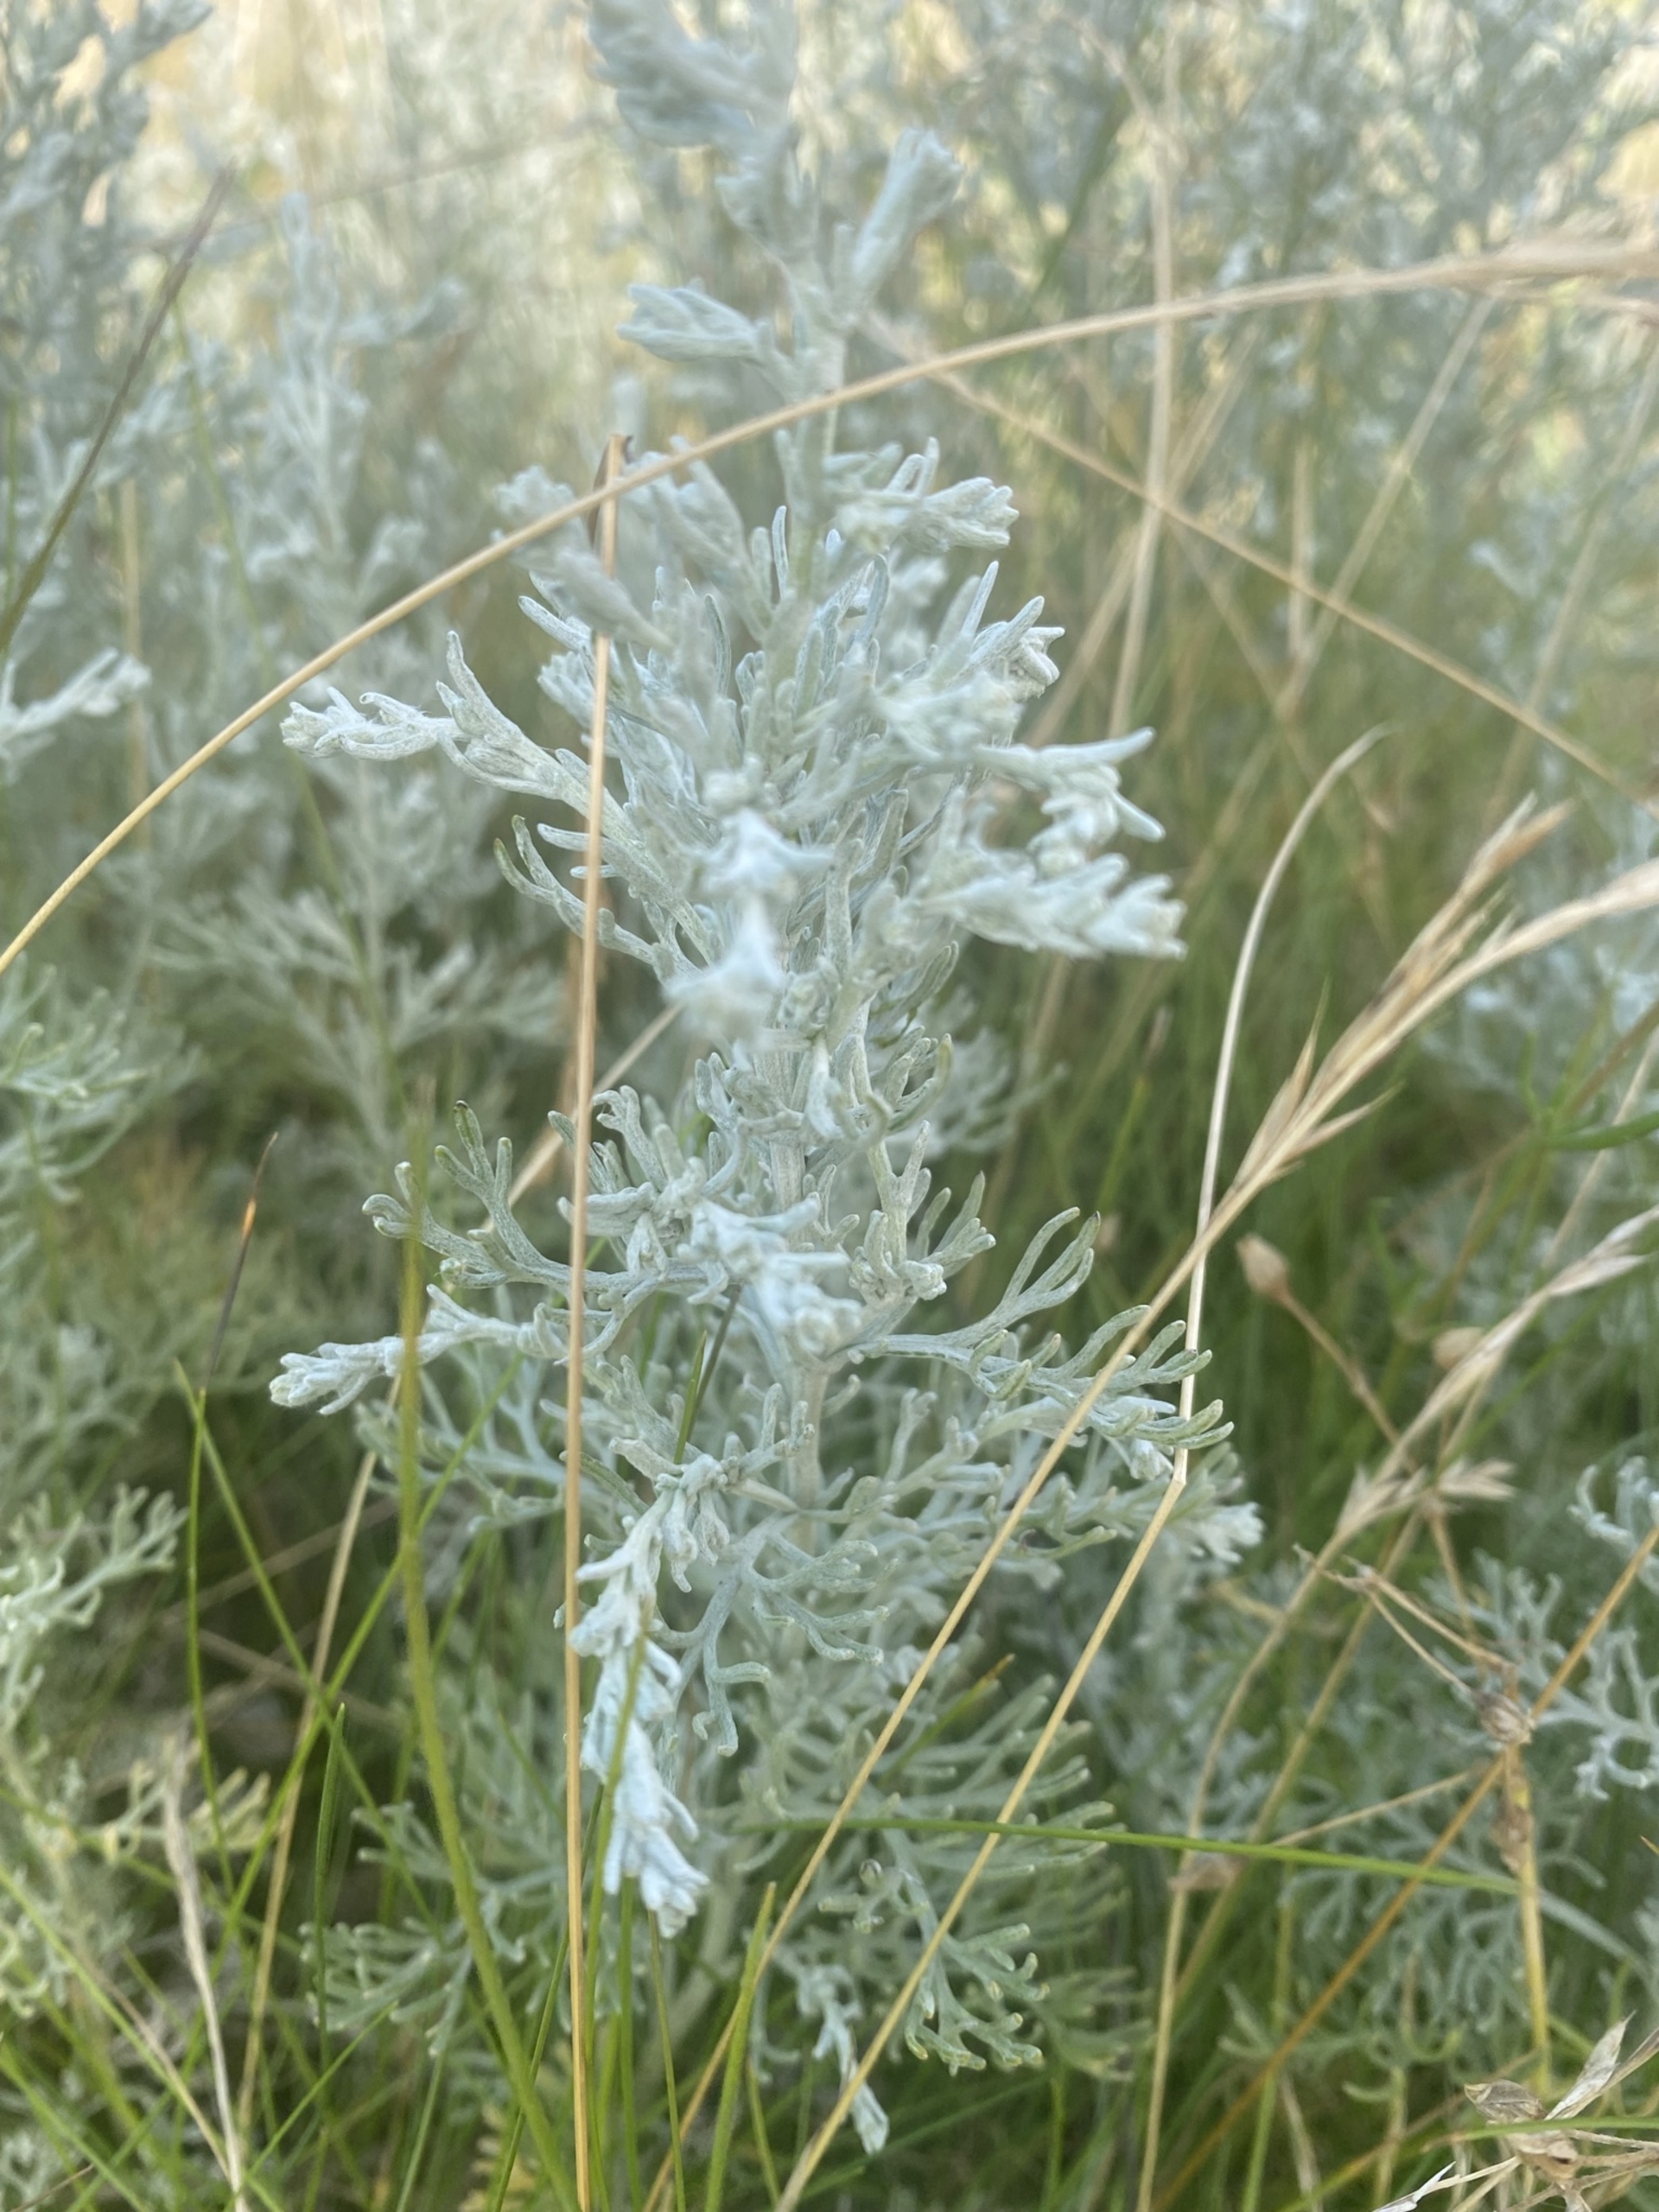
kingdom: Plantae
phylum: Tracheophyta
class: Magnoliopsida
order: Asterales
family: Asteraceae
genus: Artemisia
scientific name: Artemisia maritima
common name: Strandmalurt
